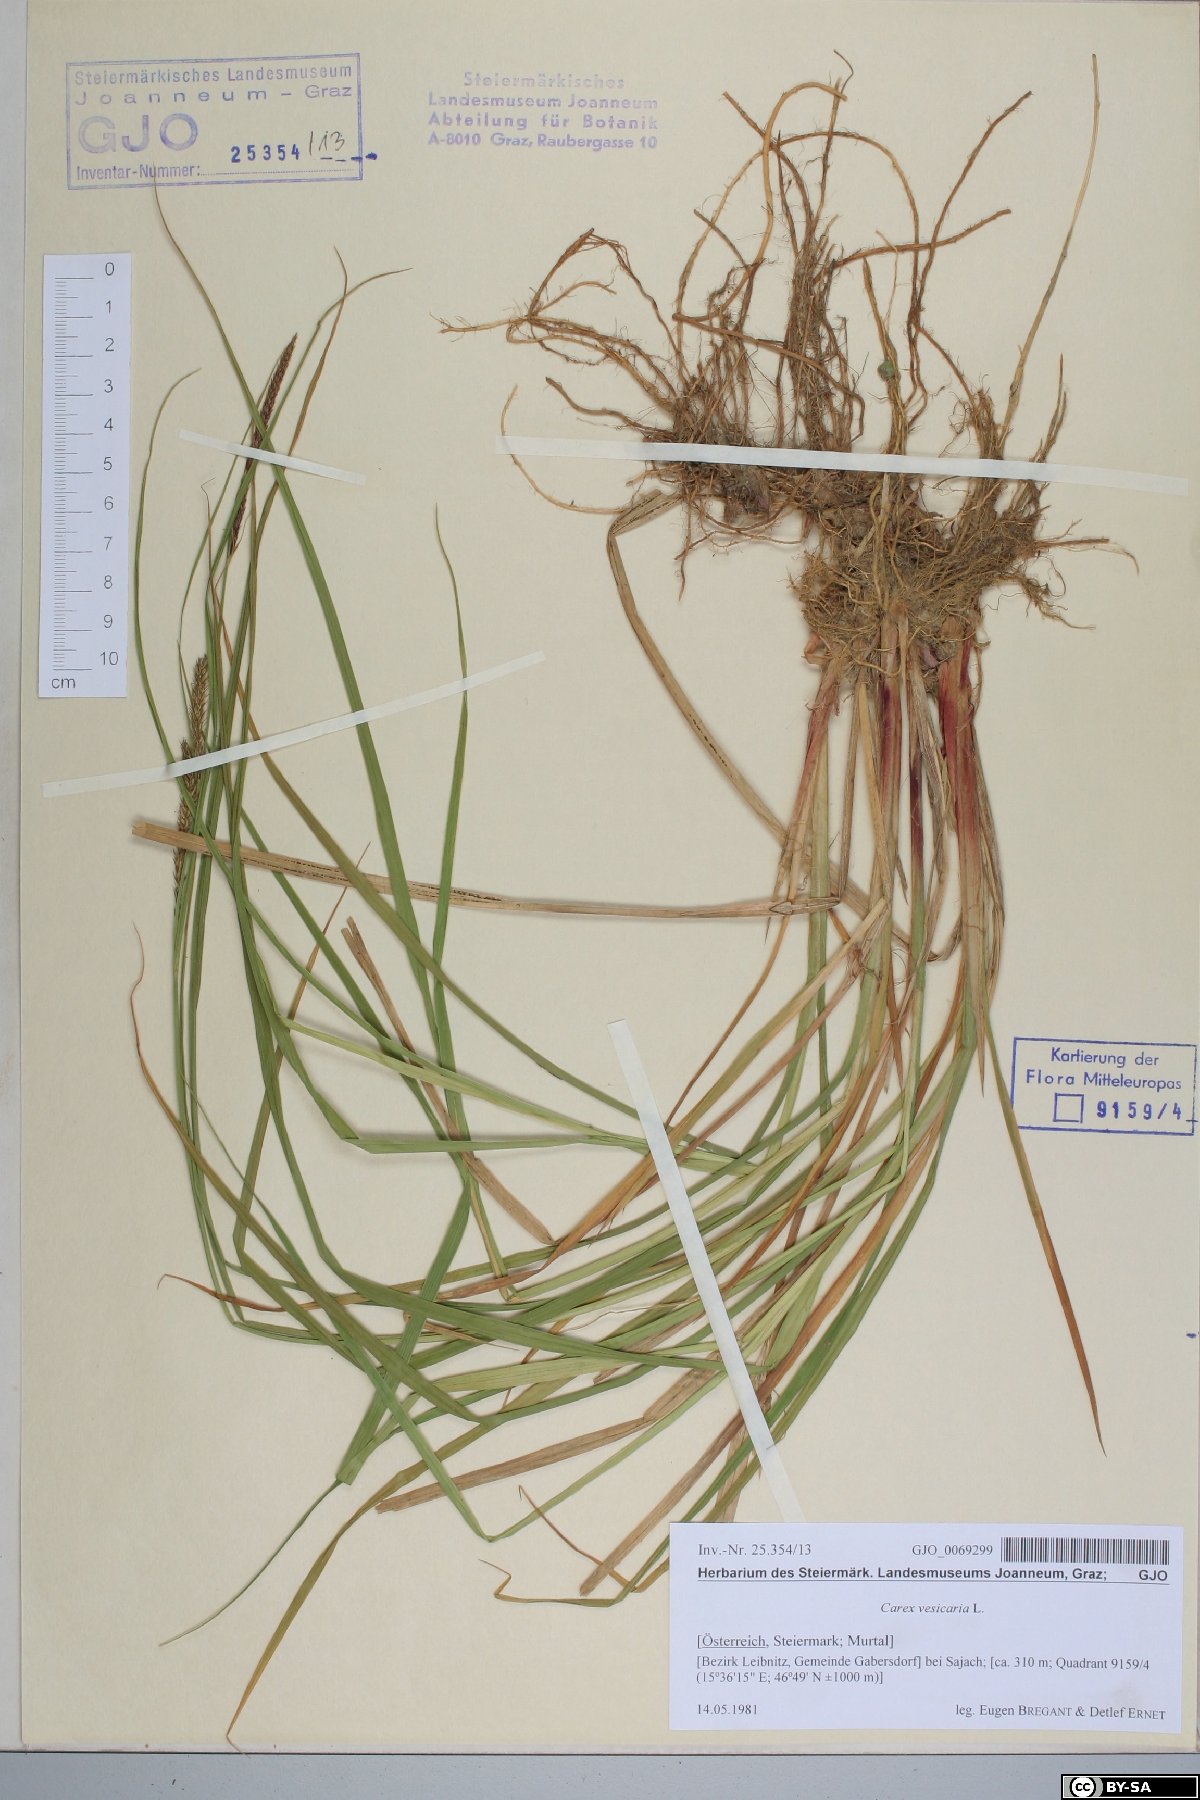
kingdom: Plantae
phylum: Tracheophyta
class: Liliopsida
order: Poales
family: Cyperaceae
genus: Carex
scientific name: Carex vesicaria
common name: Bladder-sedge
